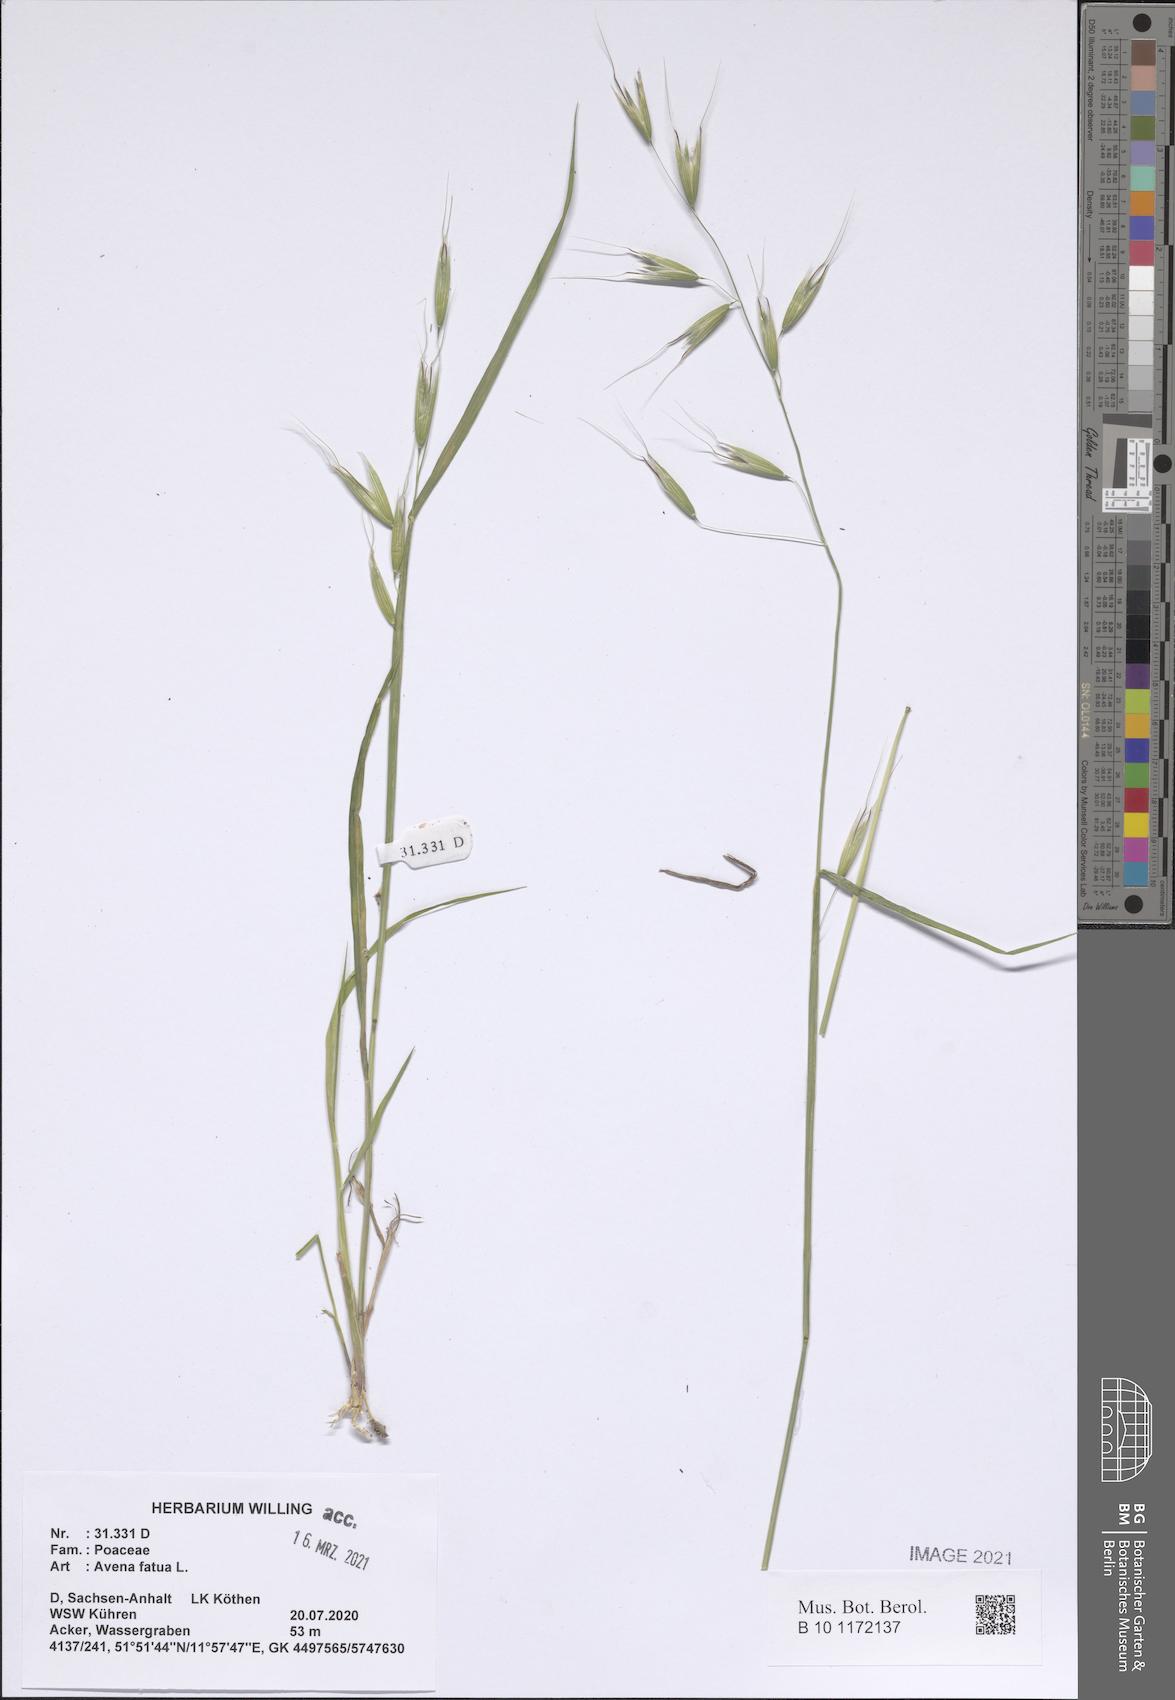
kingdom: Plantae
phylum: Tracheophyta
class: Liliopsida
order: Poales
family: Poaceae
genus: Avena
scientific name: Avena fatua
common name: Wild oat
